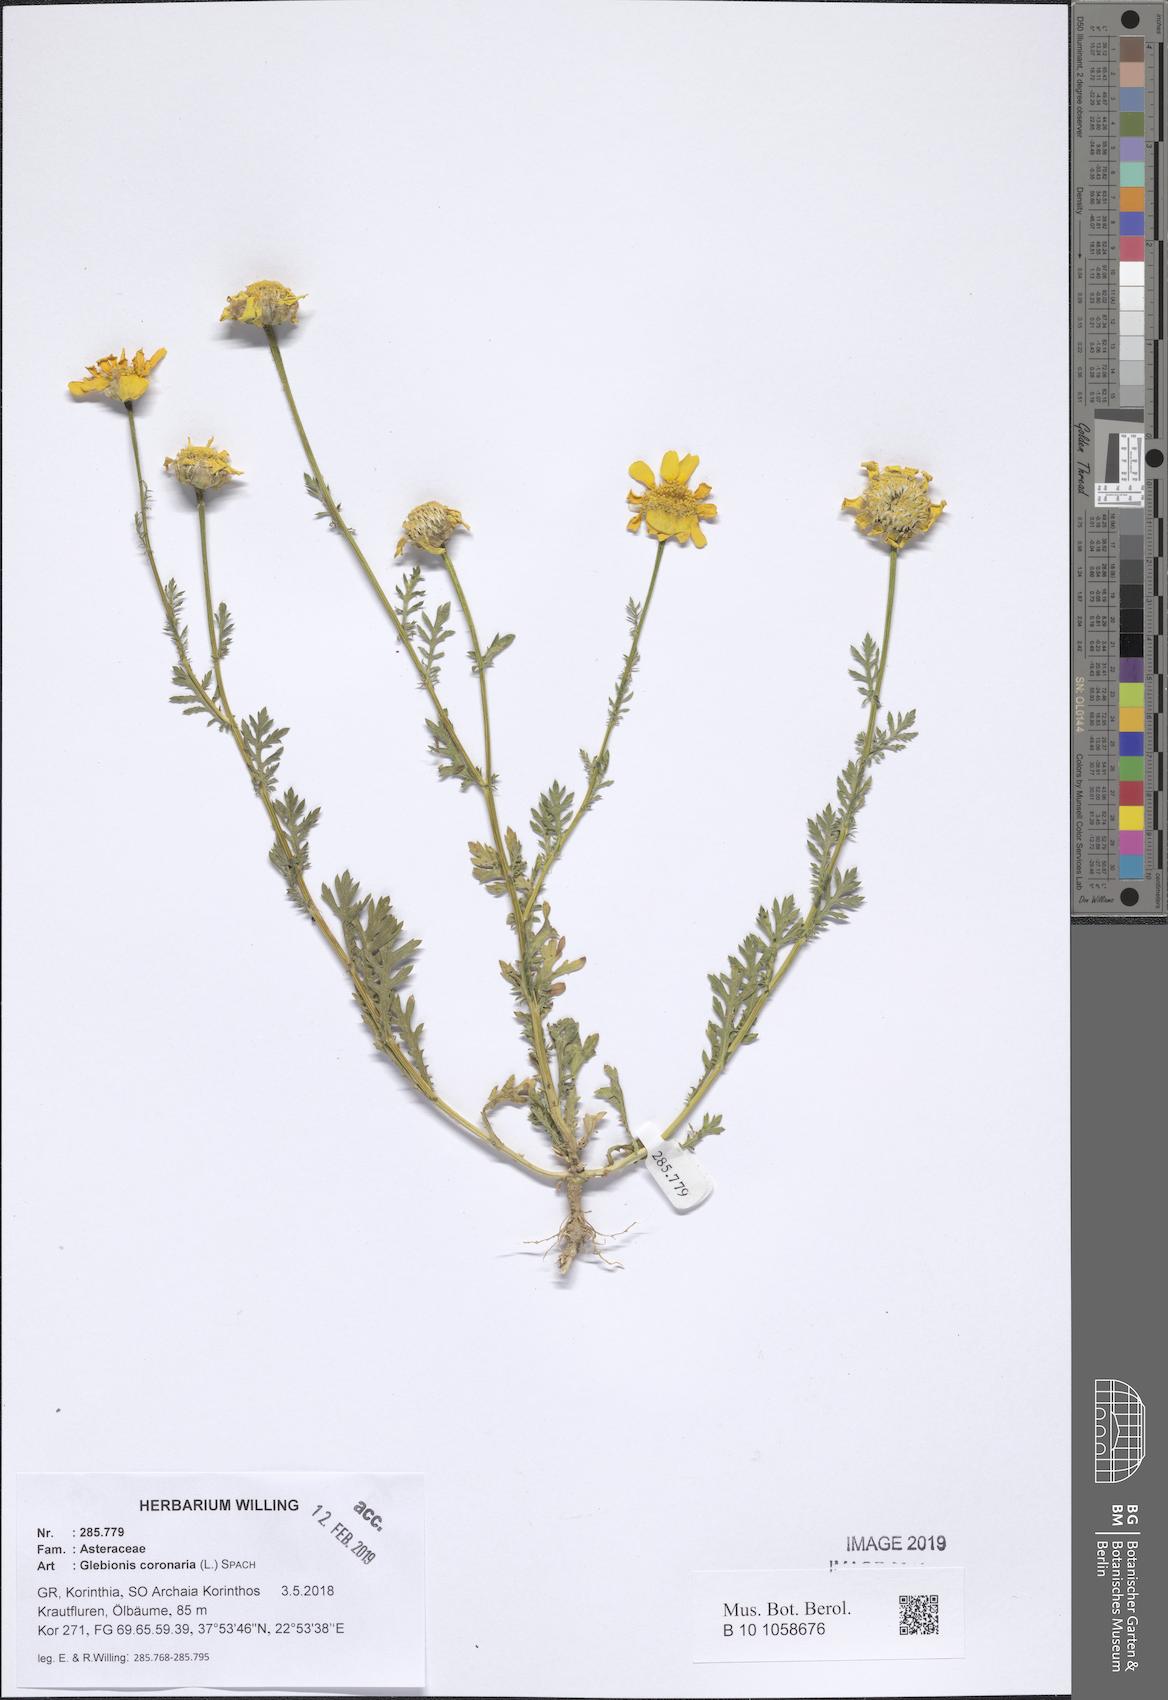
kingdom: Plantae
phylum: Tracheophyta
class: Magnoliopsida
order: Asterales
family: Asteraceae
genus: Glebionis
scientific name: Glebionis coronaria
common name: Crowndaisy
